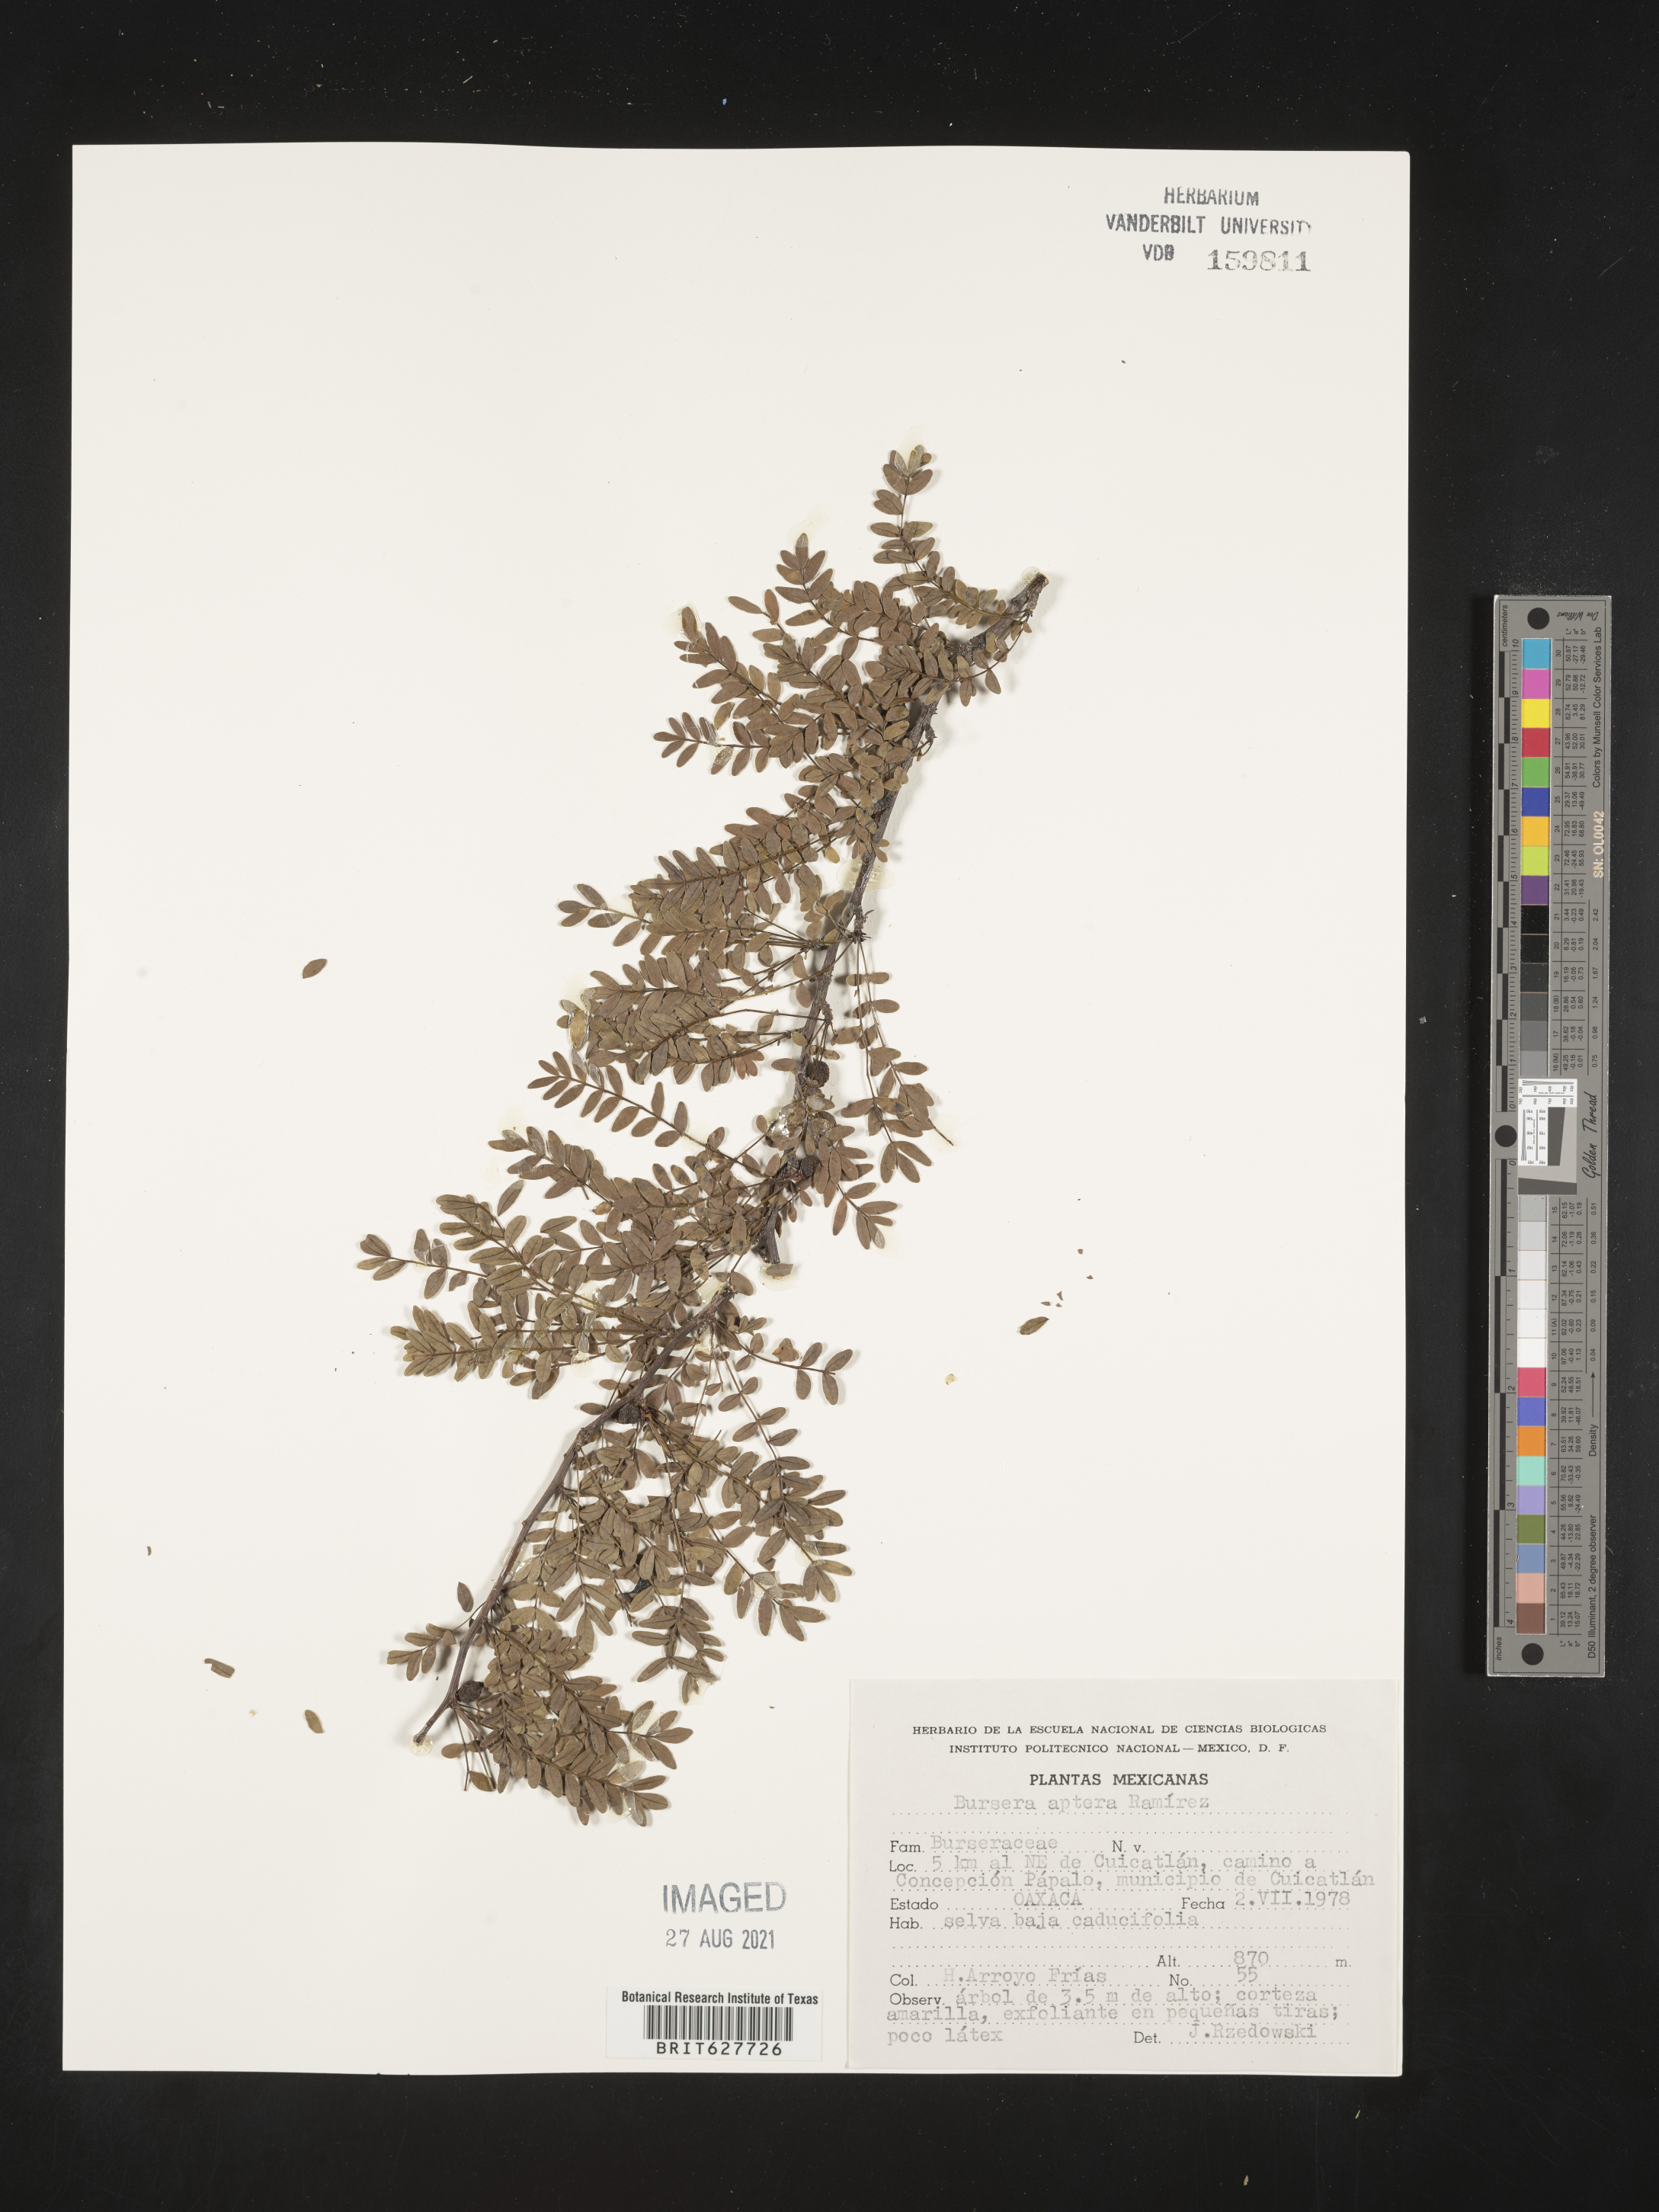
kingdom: Plantae
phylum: Tracheophyta
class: Magnoliopsida
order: Sapindales
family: Burseraceae
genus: Bursera
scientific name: Bursera
